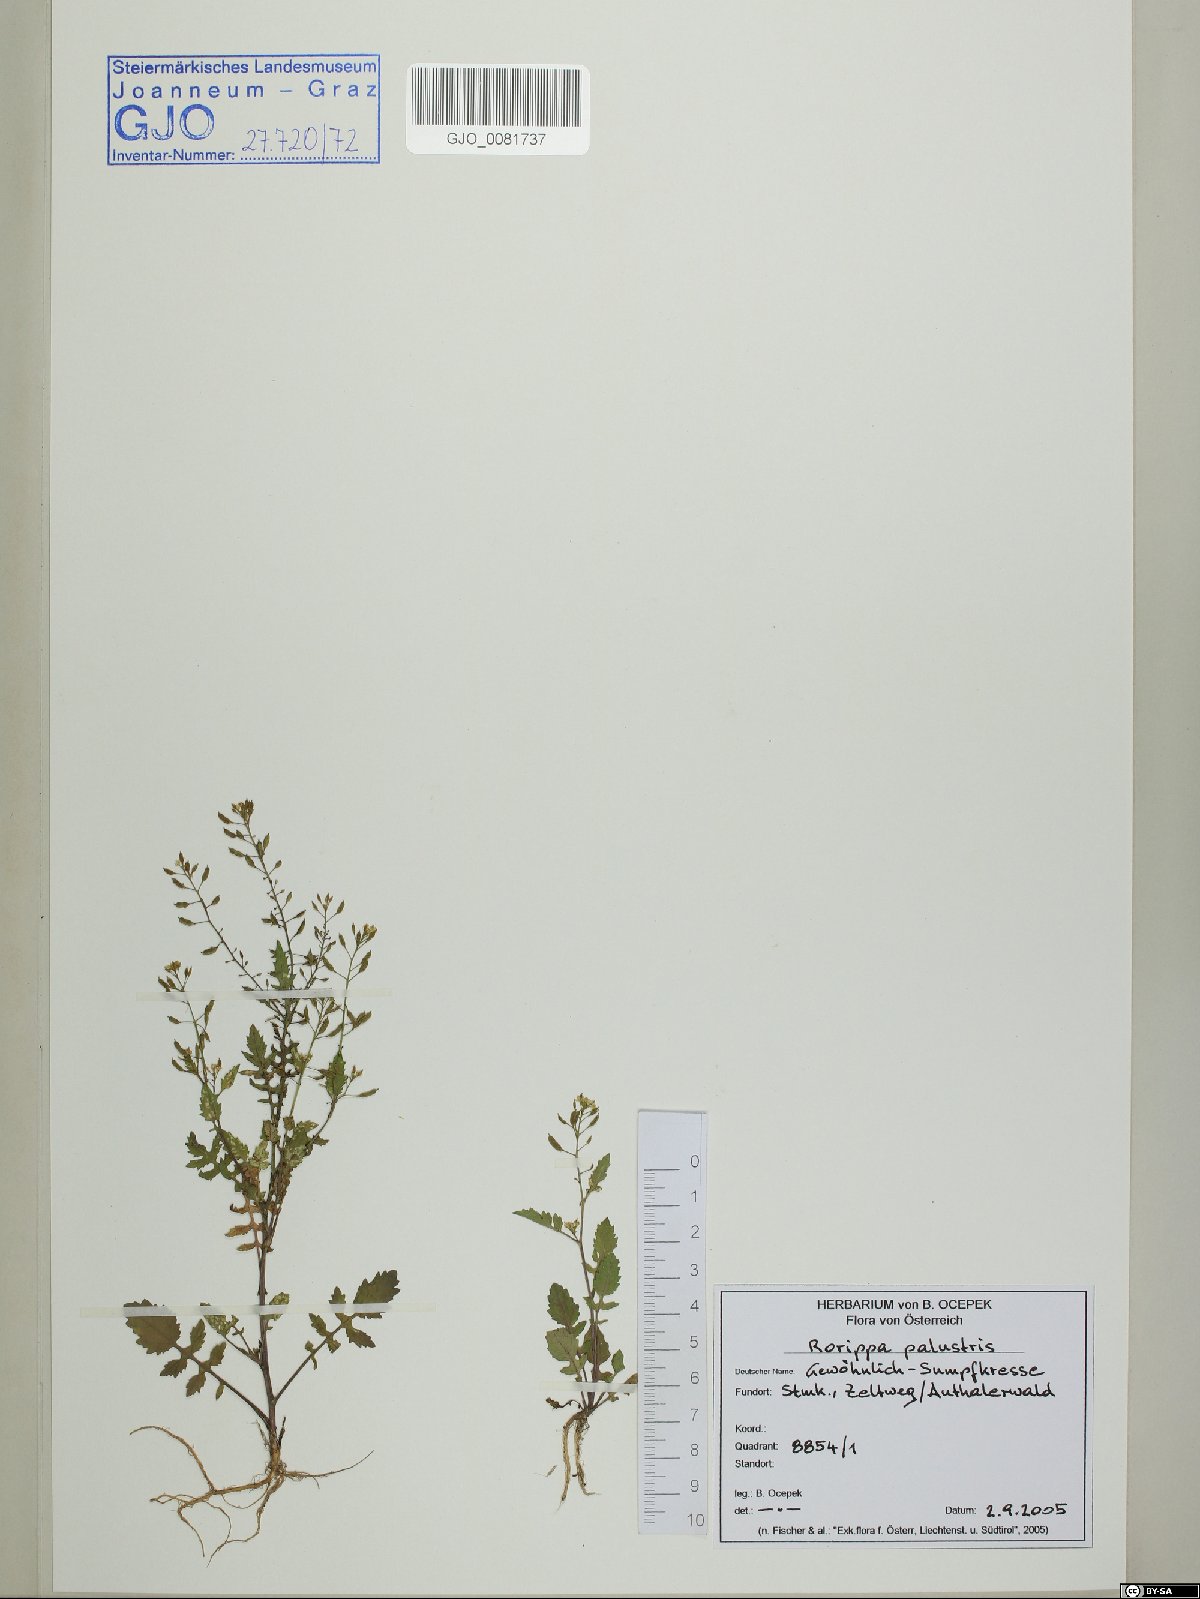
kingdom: Plantae
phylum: Tracheophyta
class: Magnoliopsida
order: Brassicales
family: Brassicaceae
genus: Rorippa
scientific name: Rorippa palustris
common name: Marsh yellow-cress
